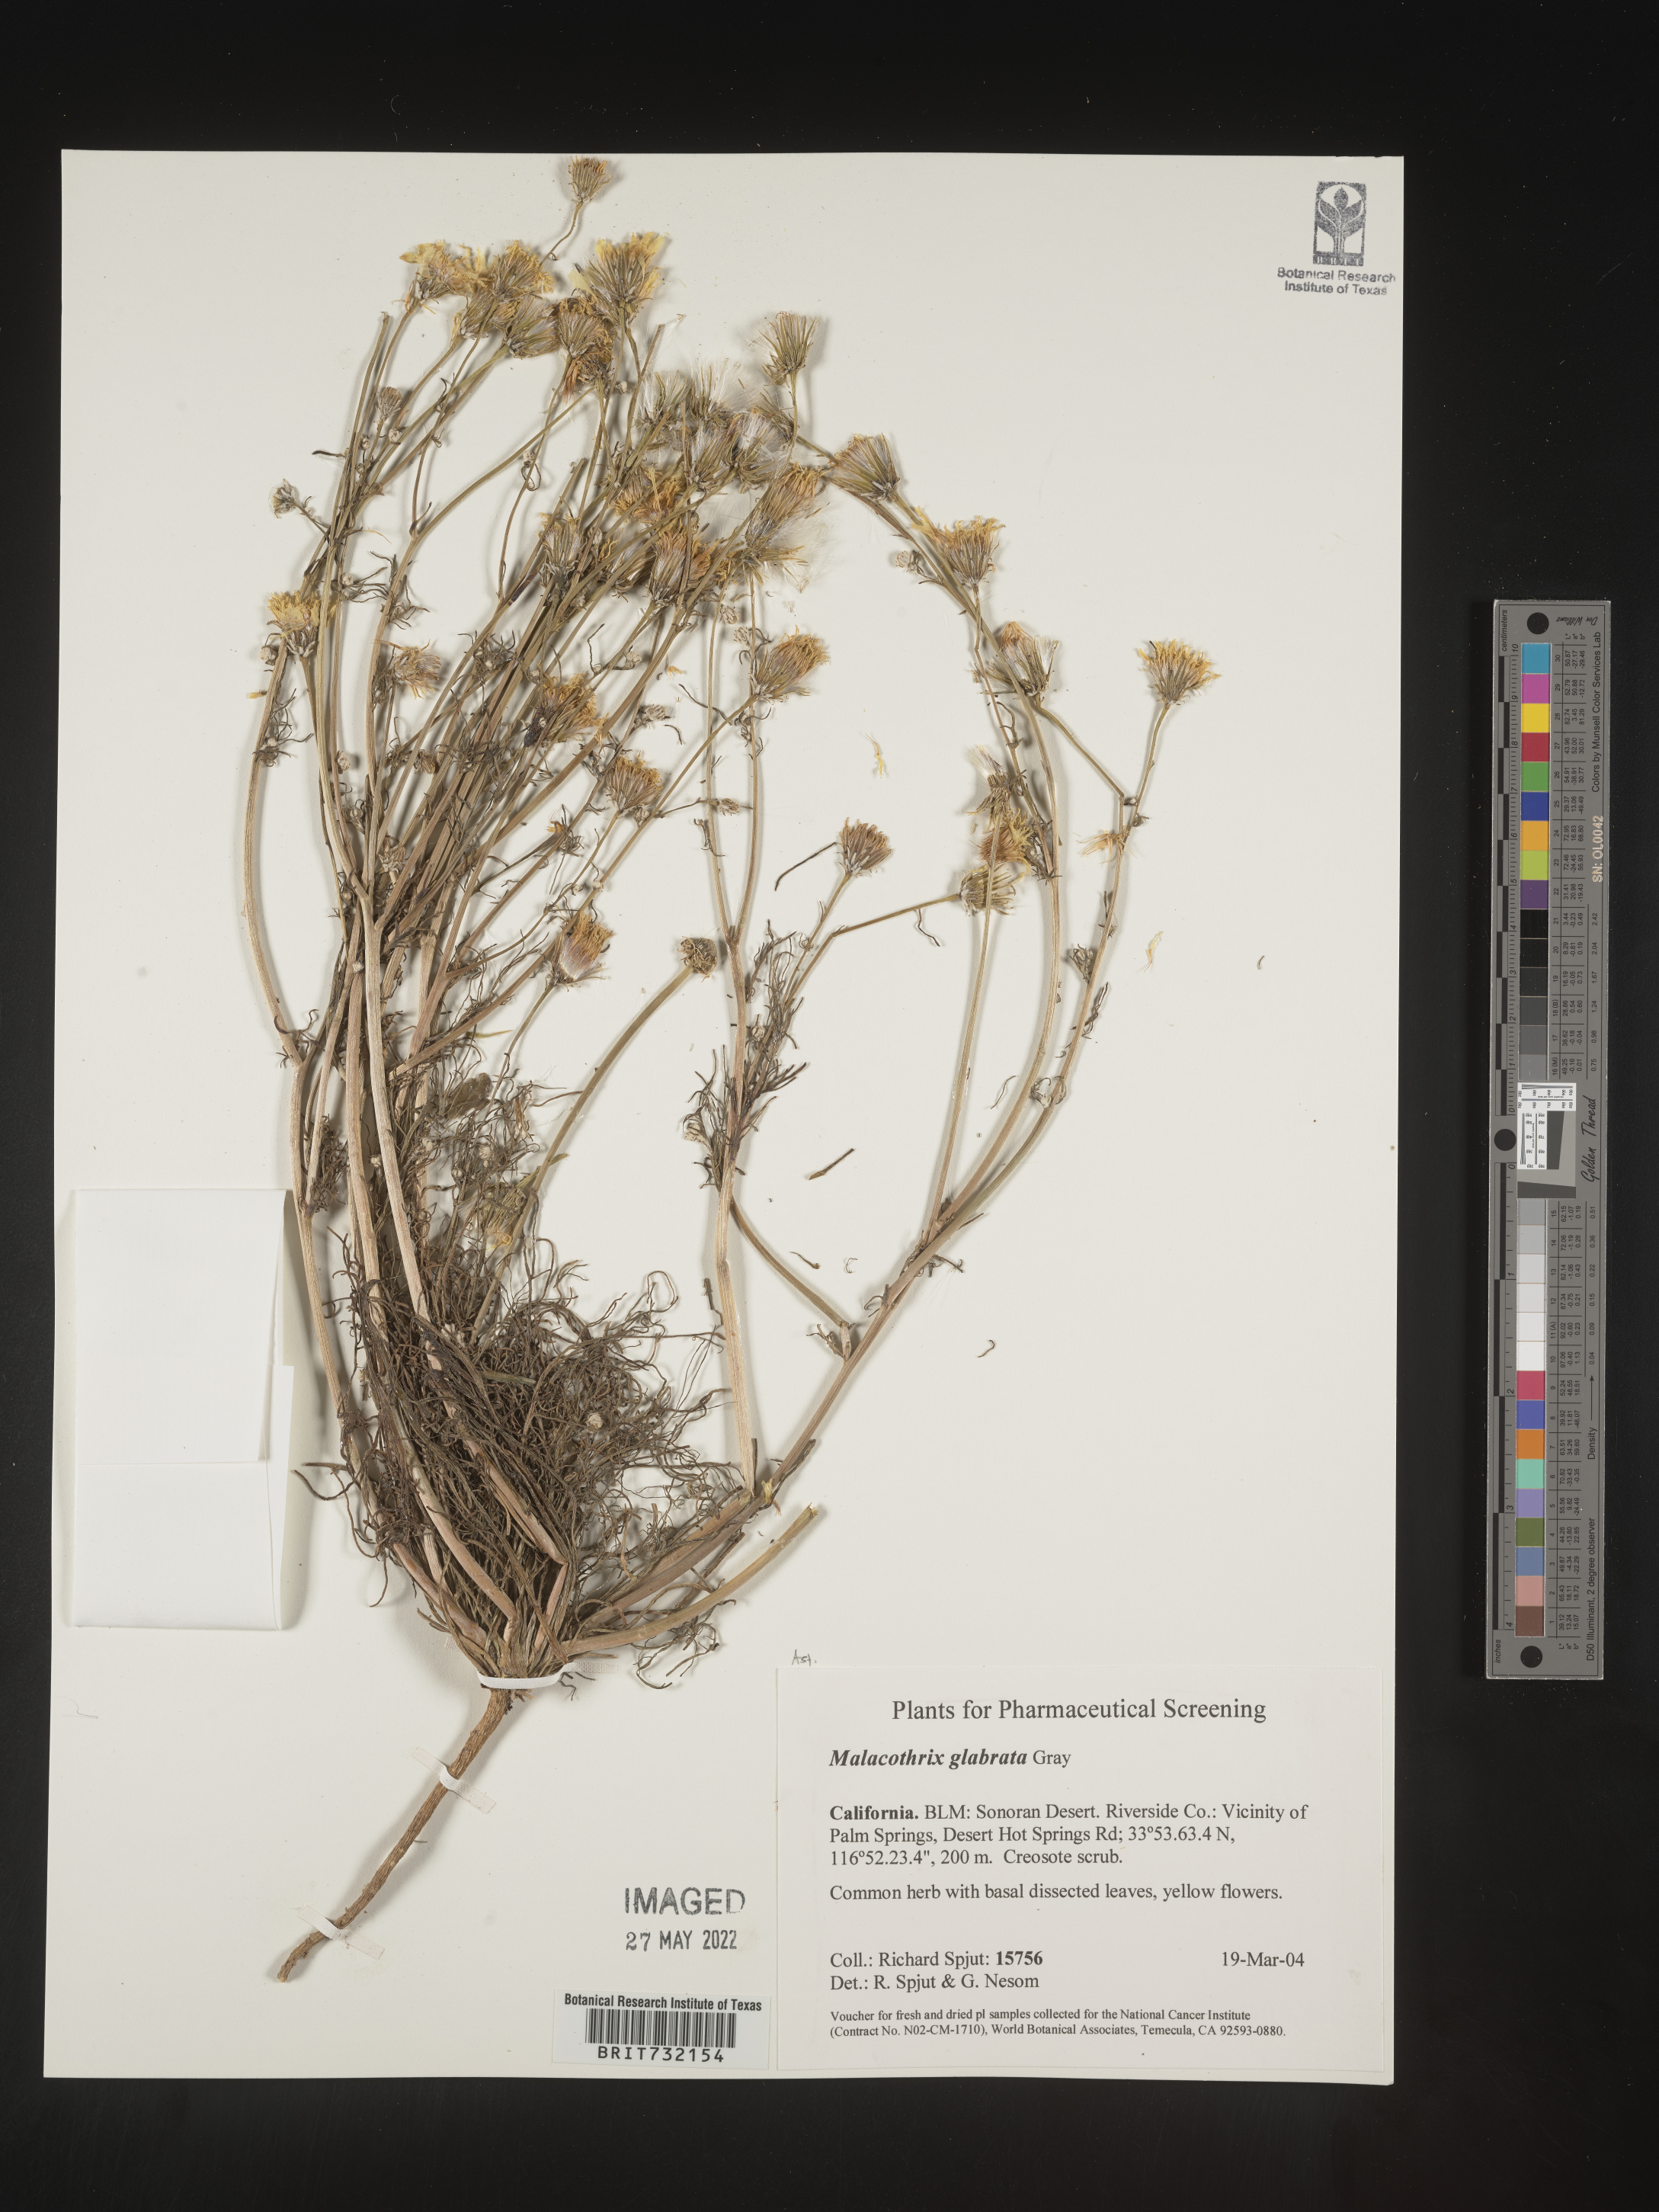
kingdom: Plantae
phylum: Tracheophyta
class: Magnoliopsida
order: Asterales
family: Asteraceae
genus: Malacothrix
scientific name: Malacothrix glabrata
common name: Smooth desert-dandelion
